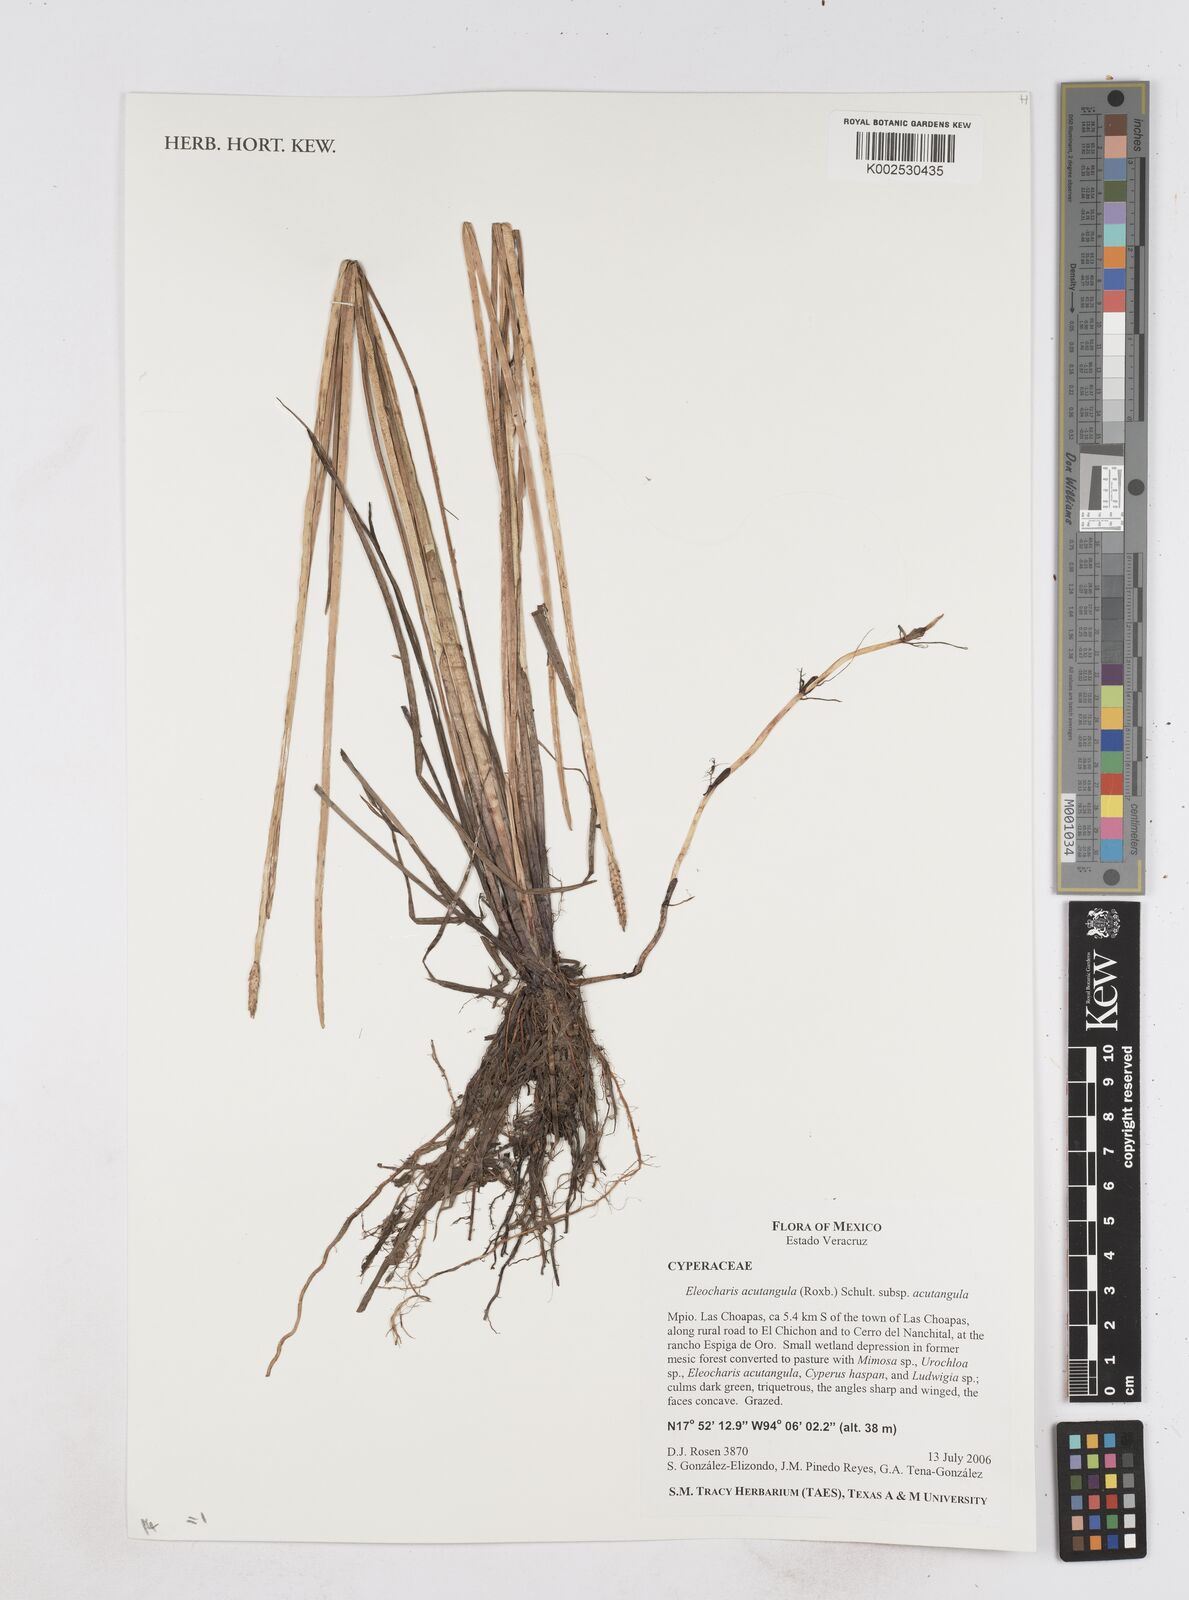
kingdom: Plantae
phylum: Tracheophyta
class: Liliopsida
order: Poales
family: Cyperaceae
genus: Eleocharis
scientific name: Eleocharis acutangula
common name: Acute spikerush
